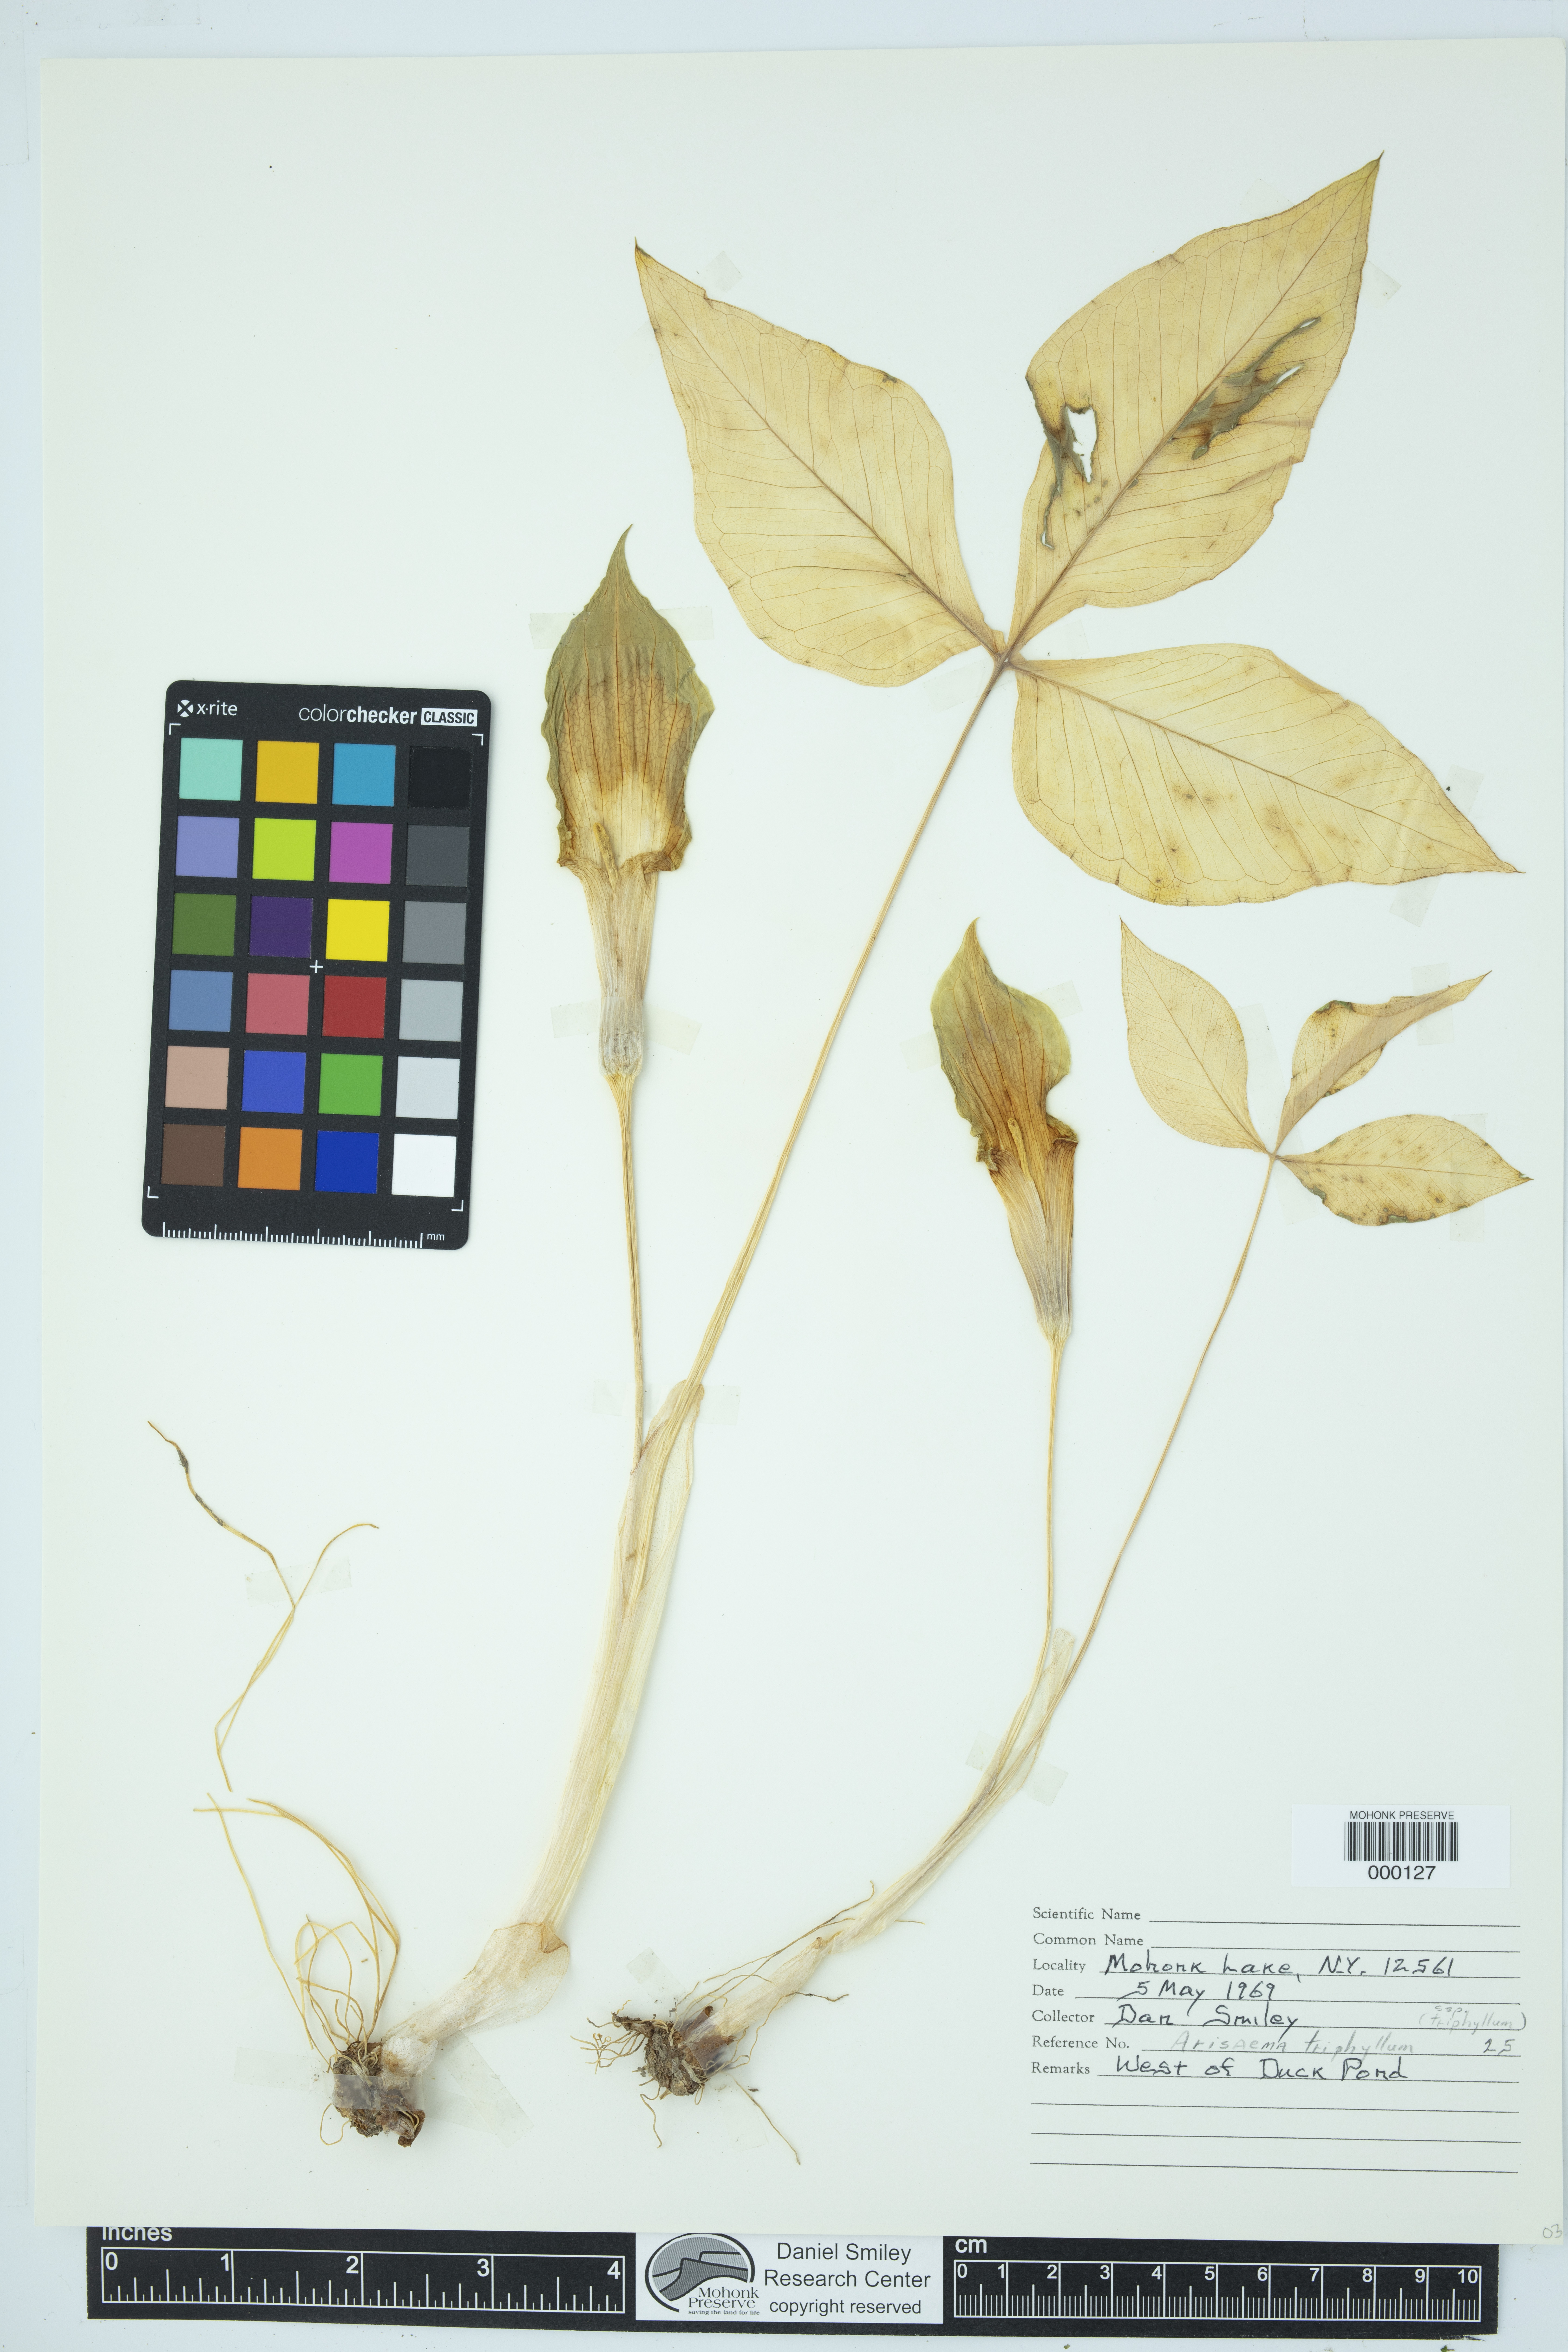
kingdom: Plantae
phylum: Tracheophyta
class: Liliopsida
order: Alismatales
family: Araceae
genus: Arisaema
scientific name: Arisaema triphyllum
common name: Jack-in-the-pulpit
